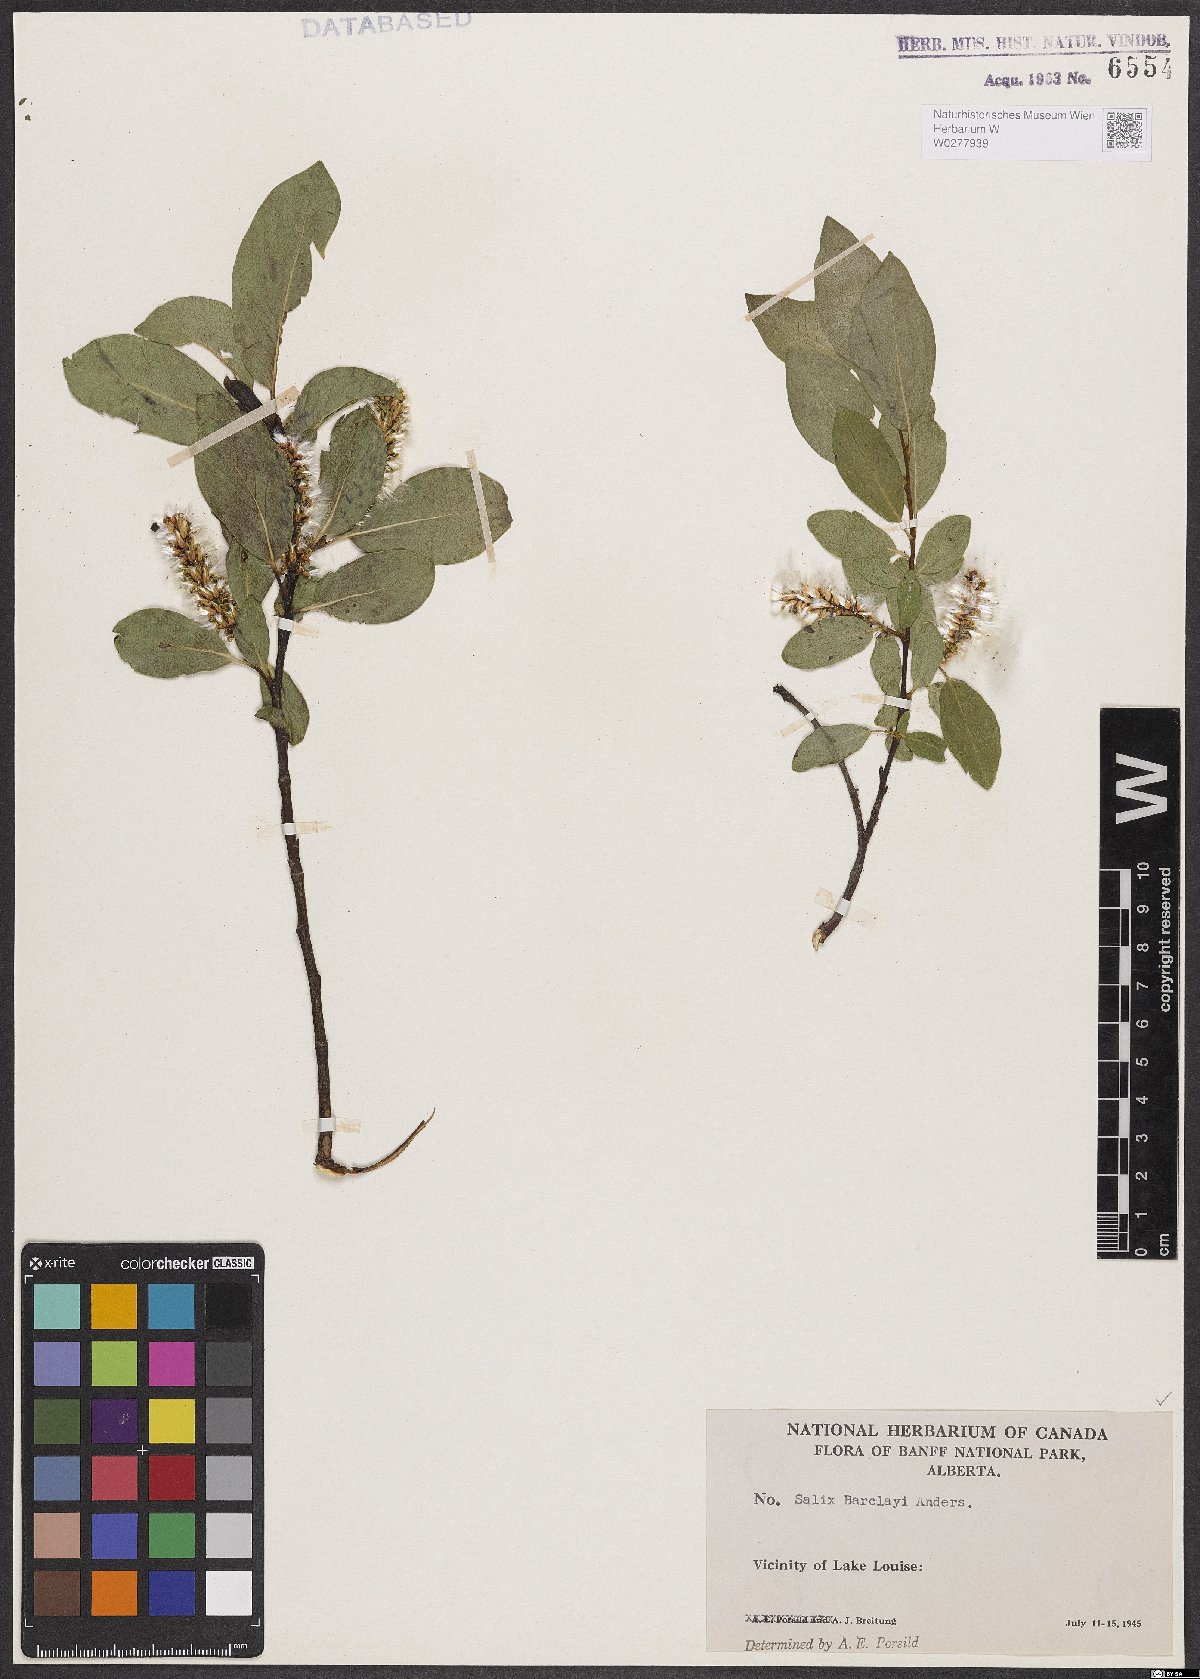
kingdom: Plantae
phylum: Tracheophyta
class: Magnoliopsida
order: Malpighiales
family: Salicaceae
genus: Salix
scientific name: Salix barclayi
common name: Mountain willow
